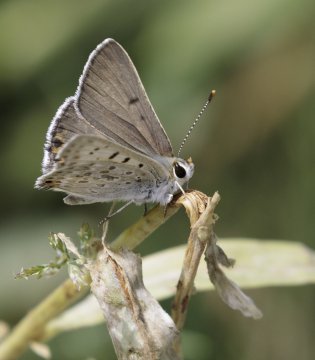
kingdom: Animalia
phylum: Arthropoda
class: Insecta
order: Lepidoptera
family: Lycaenidae
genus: Lycaena
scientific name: Lycaena editha
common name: Edith's Copper
